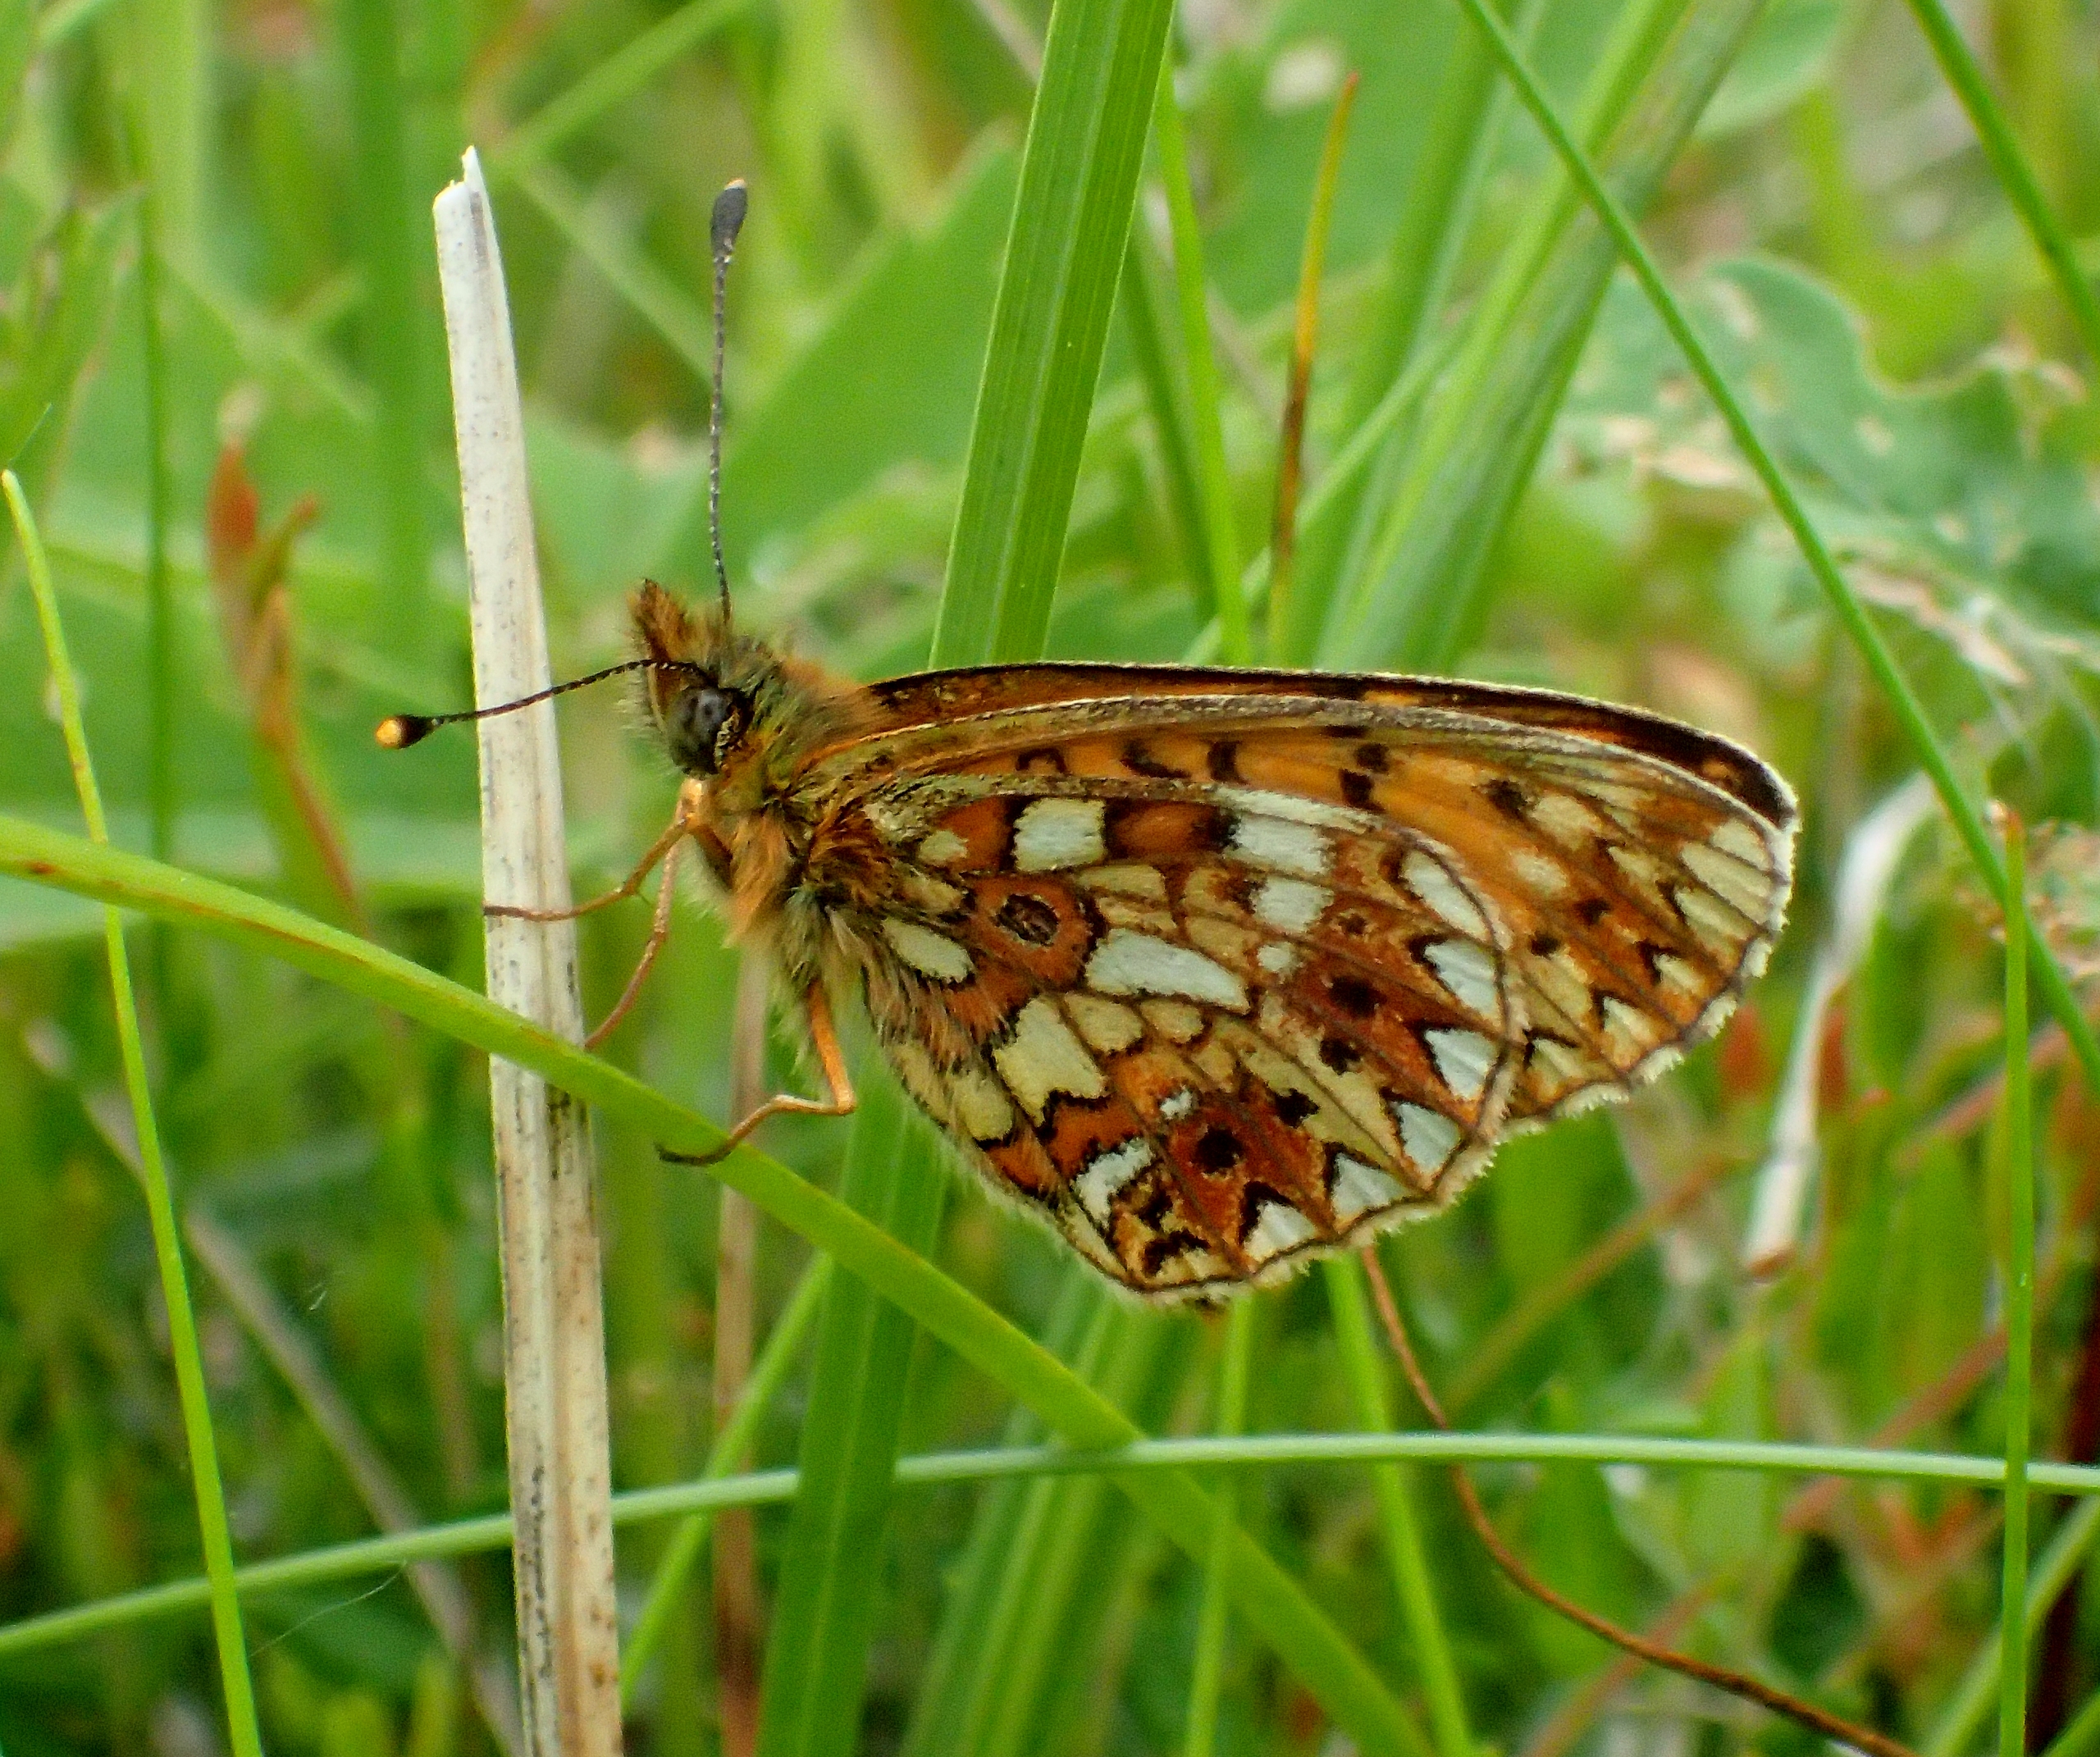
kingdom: Animalia
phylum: Arthropoda
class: Insecta
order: Lepidoptera
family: Nymphalidae
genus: Boloria
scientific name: Boloria selene
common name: Brunlig perlemorsommerfugl
